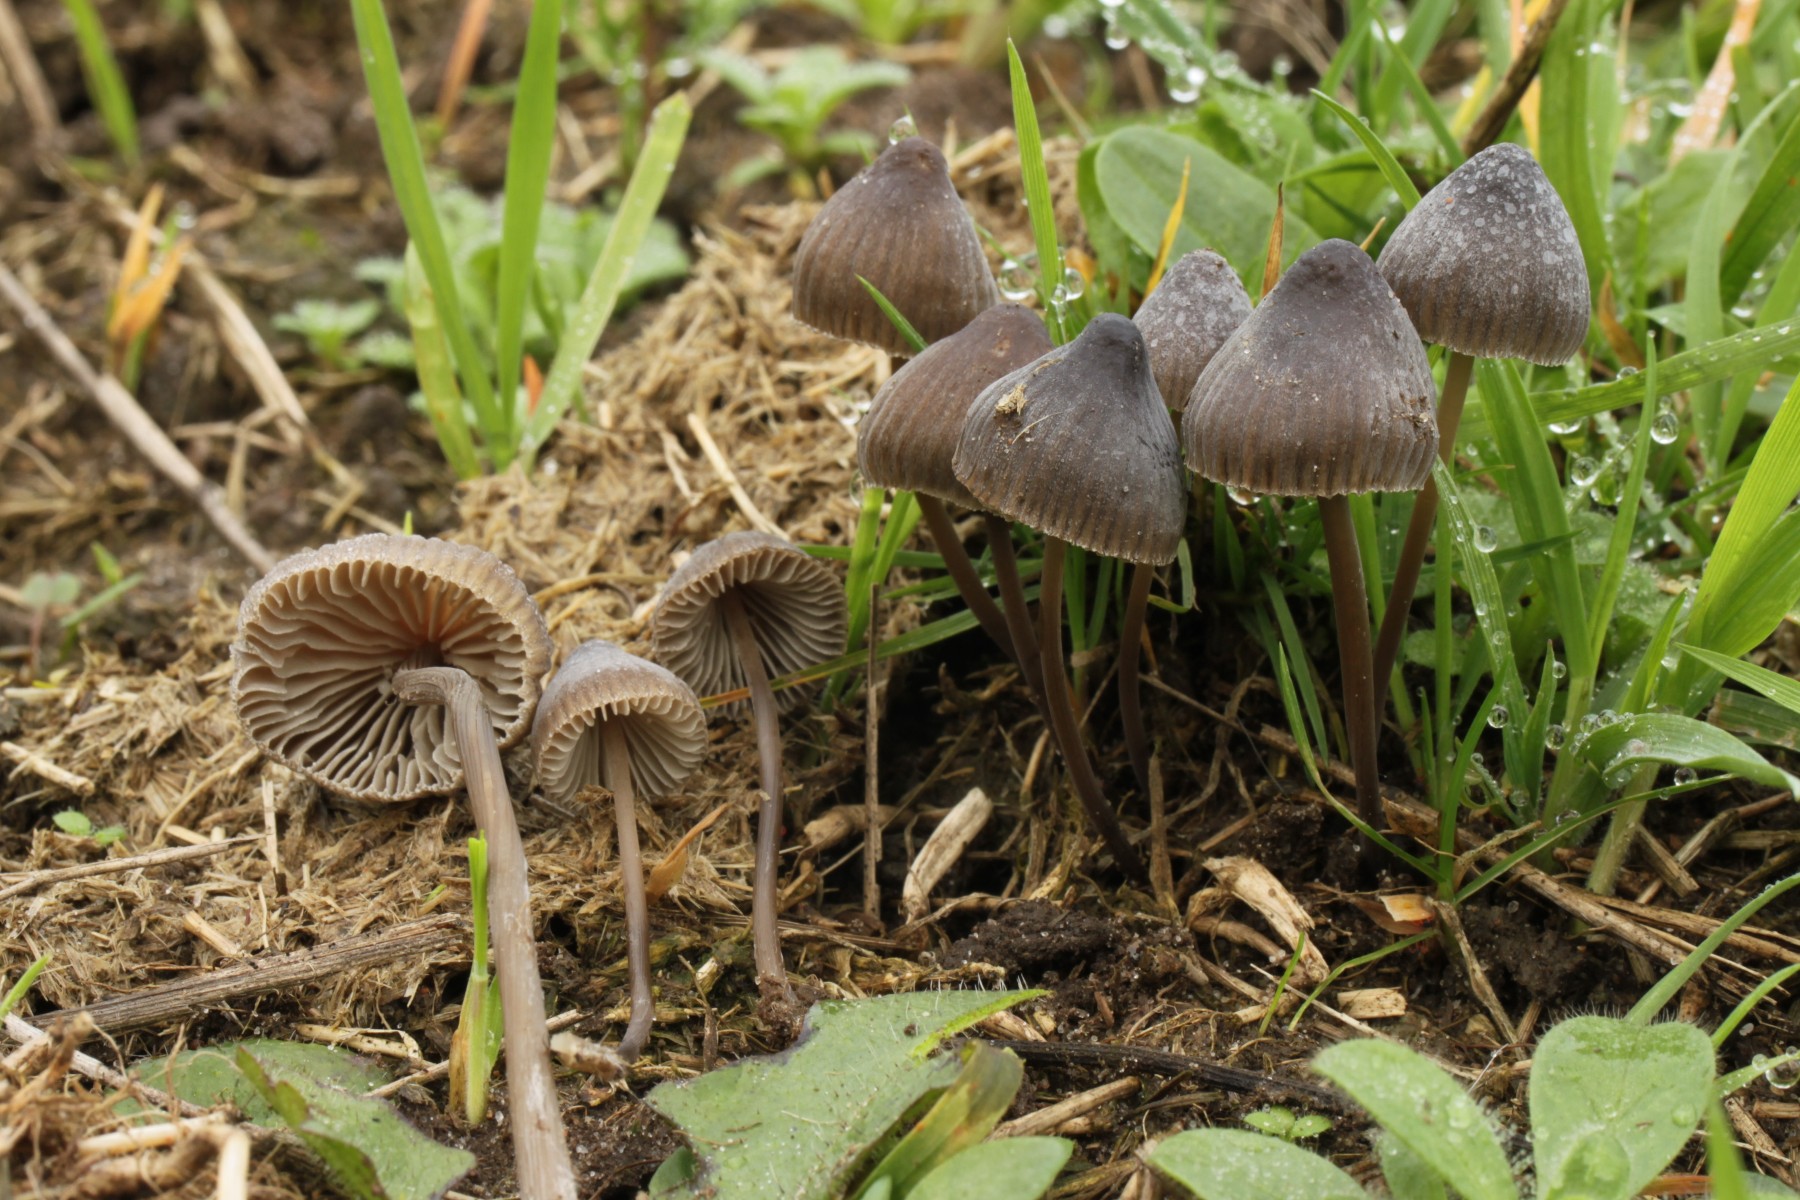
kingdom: Fungi
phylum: Basidiomycota
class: Agaricomycetes
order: Agaricales
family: Mycenaceae
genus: Mycena
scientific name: Mycena
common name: huesvamp
